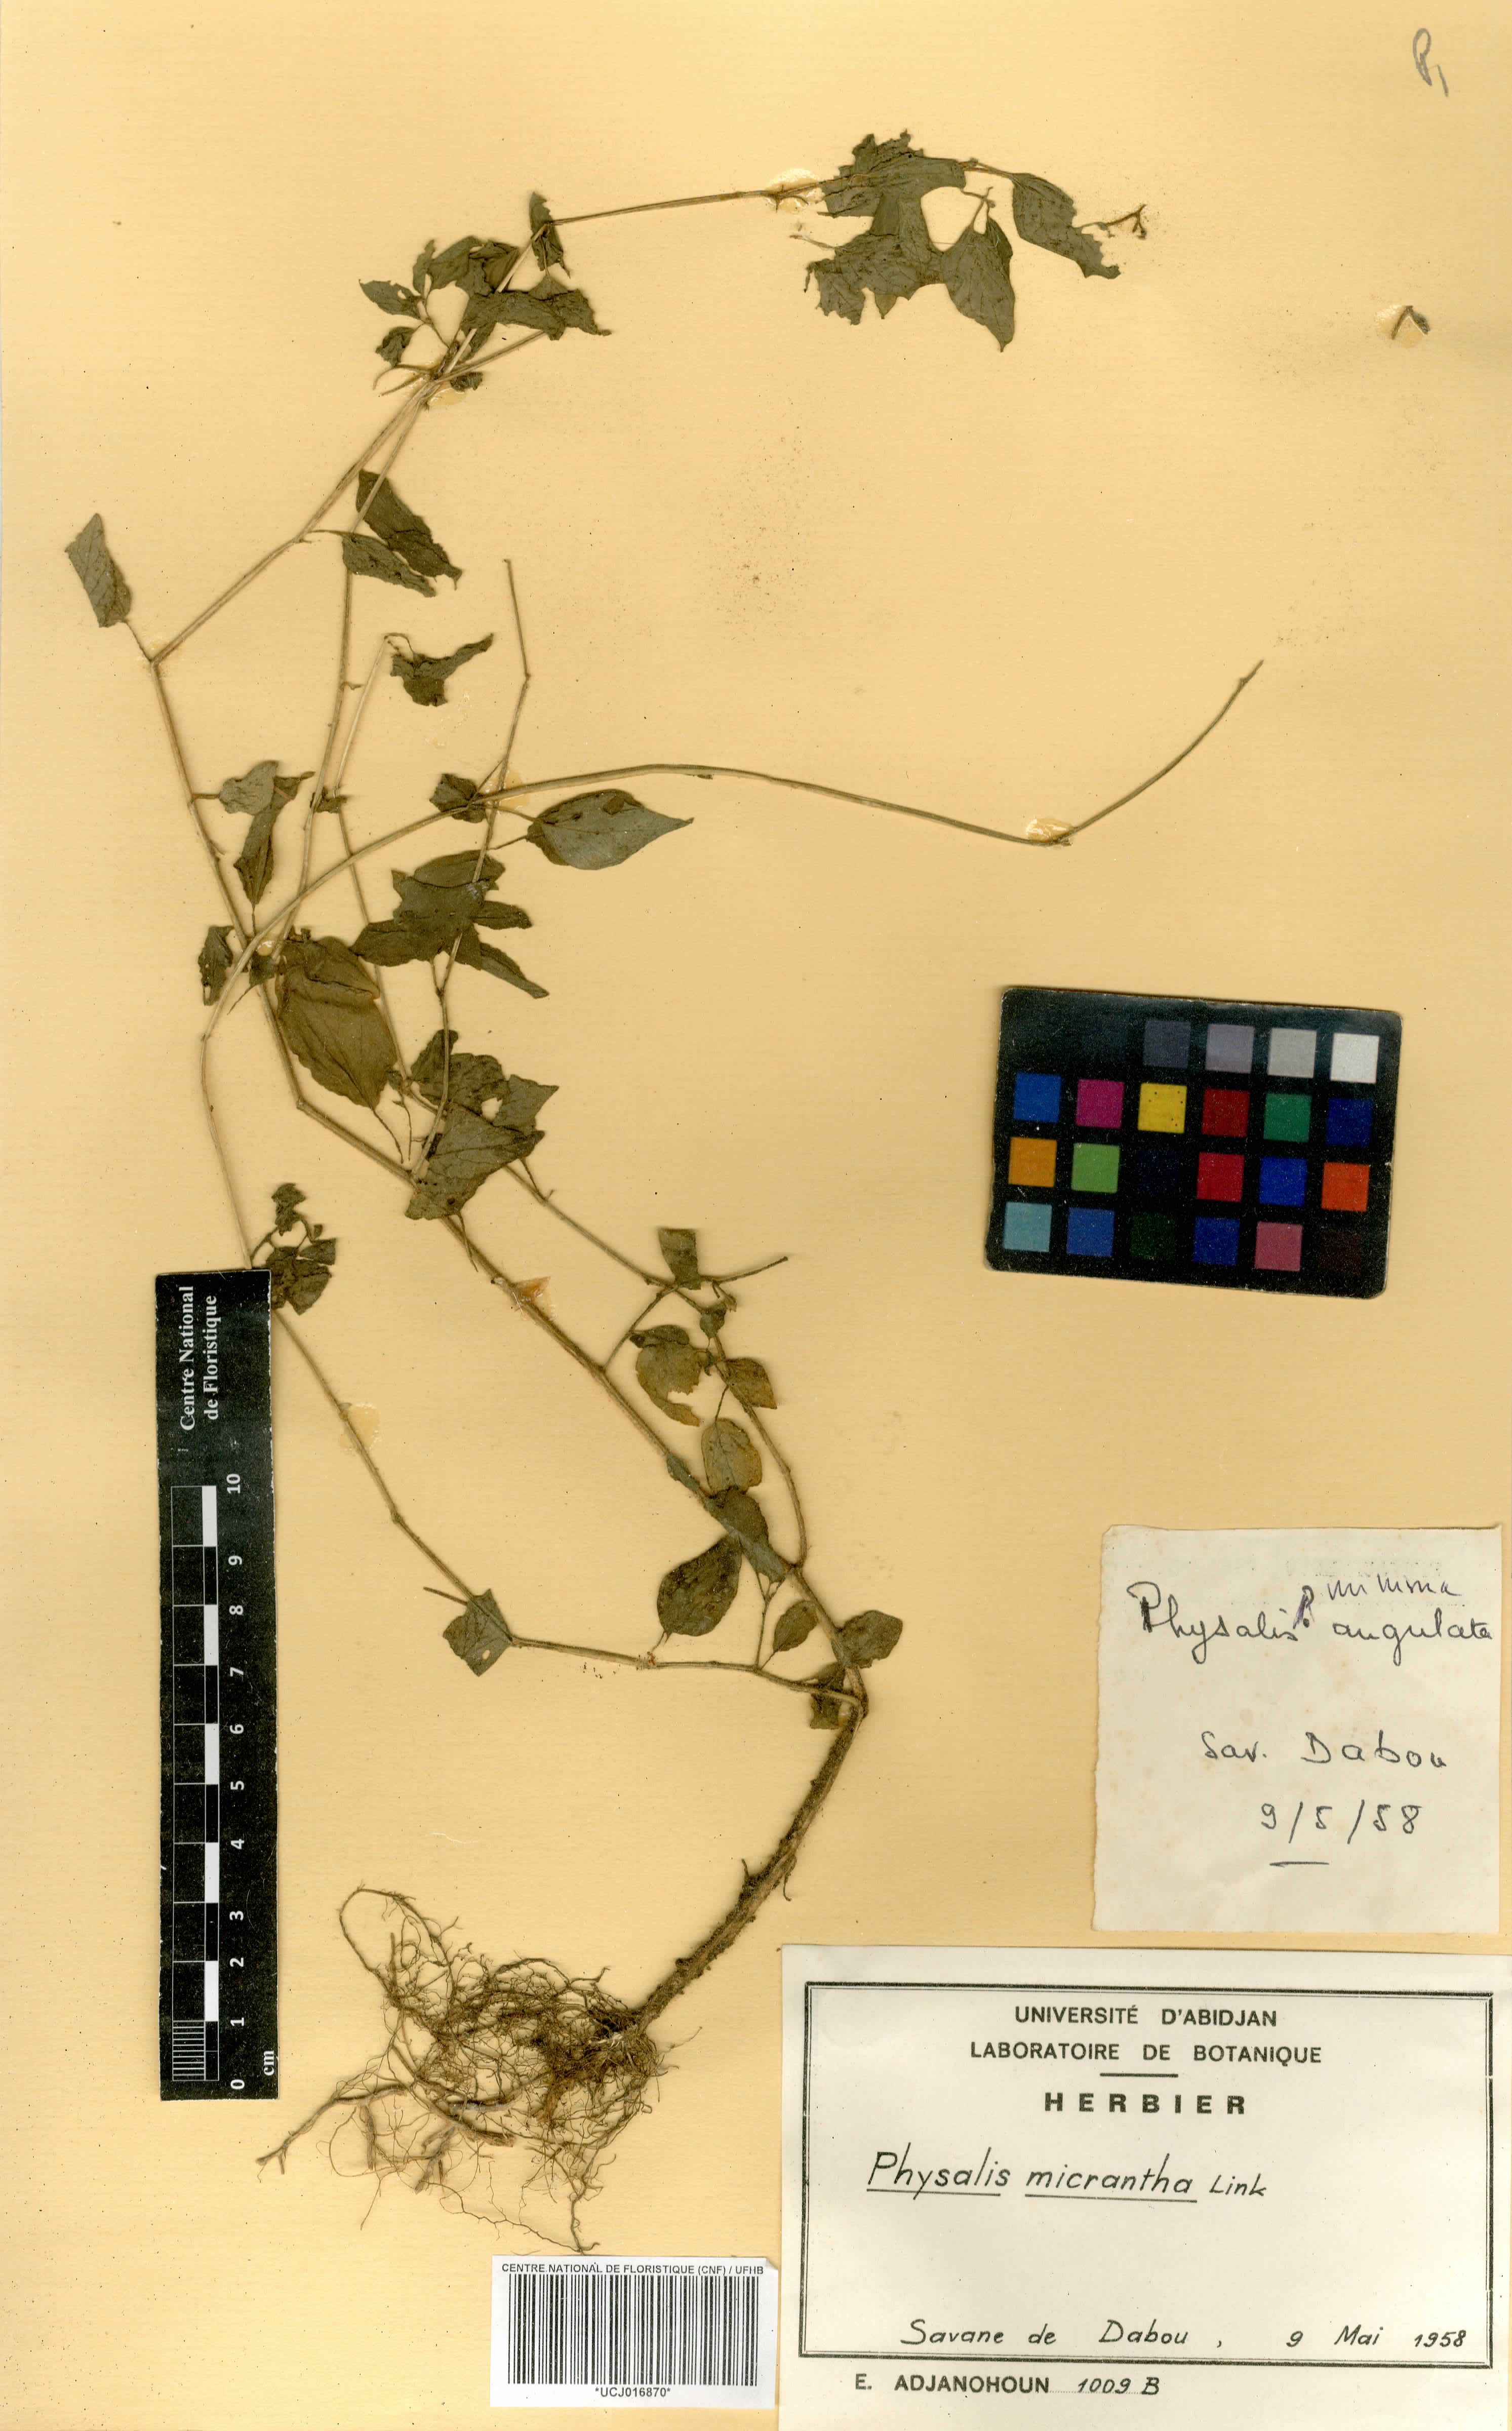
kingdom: Plantae
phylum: Tracheophyta
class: Magnoliopsida
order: Solanales
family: Solanaceae
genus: Physalis
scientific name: Physalis lagascae
